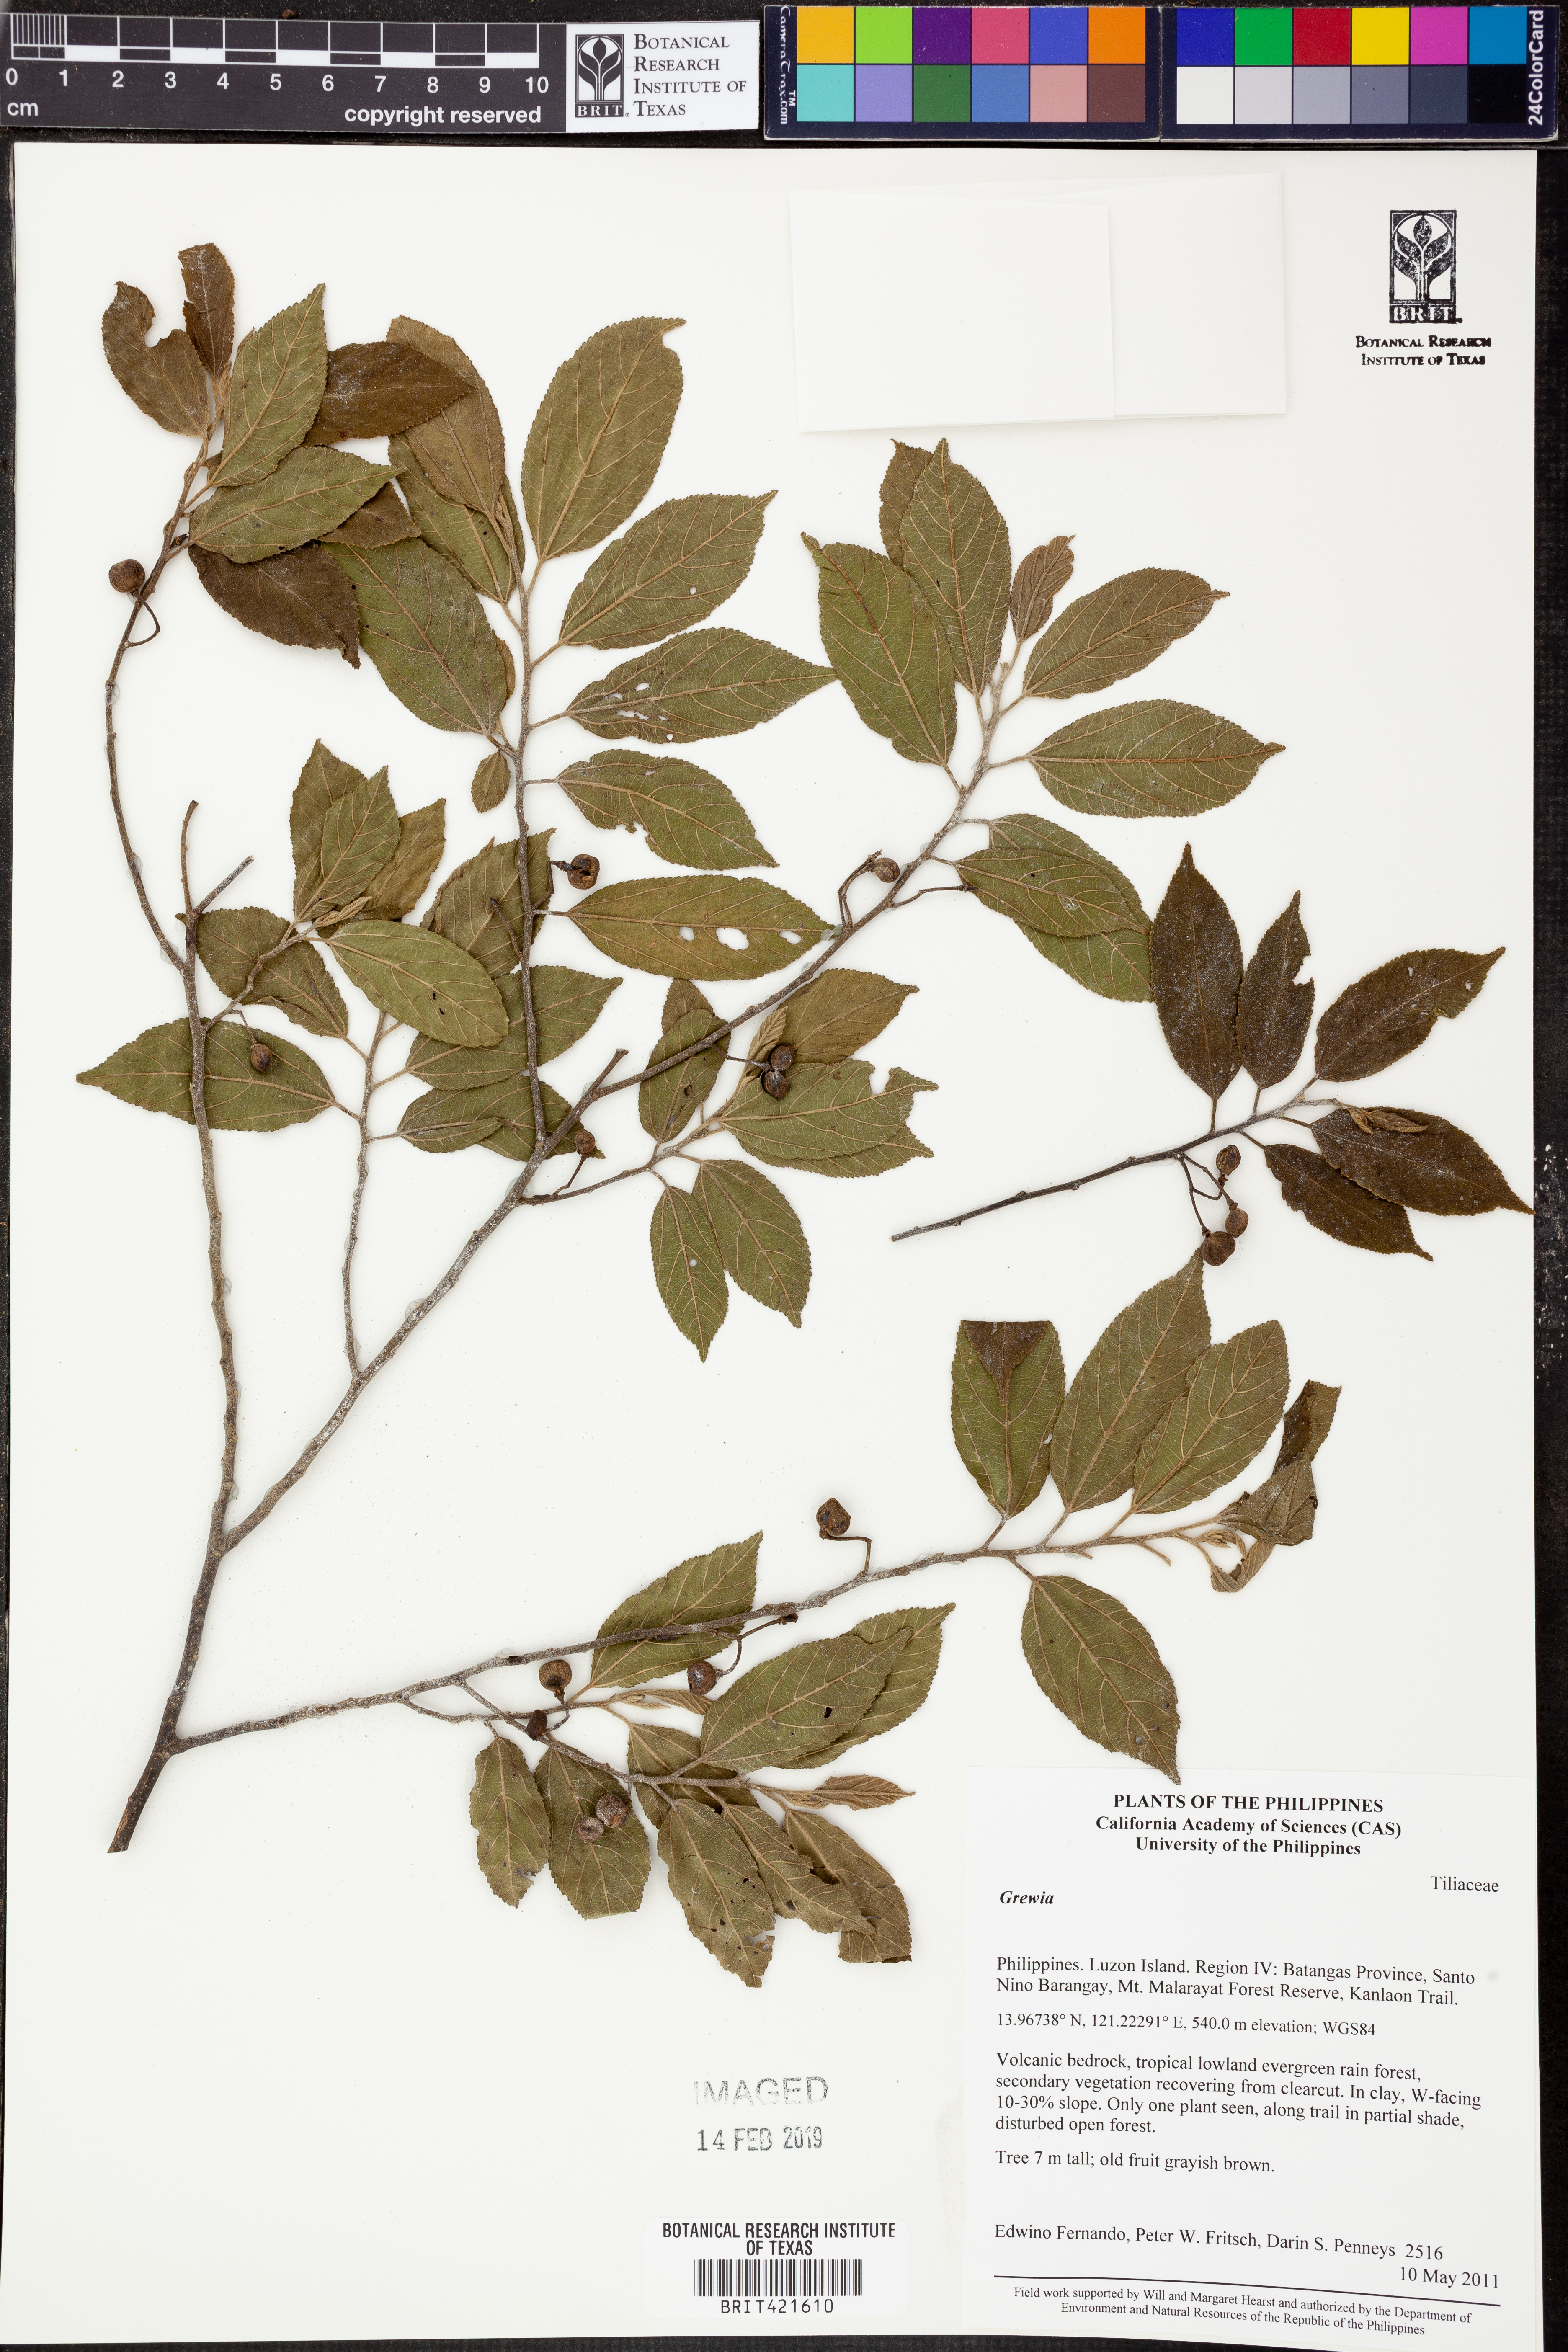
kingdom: Plantae
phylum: Tracheophyta
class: Magnoliopsida
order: Malvales
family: Malvaceae
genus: Grewia
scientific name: Grewia
